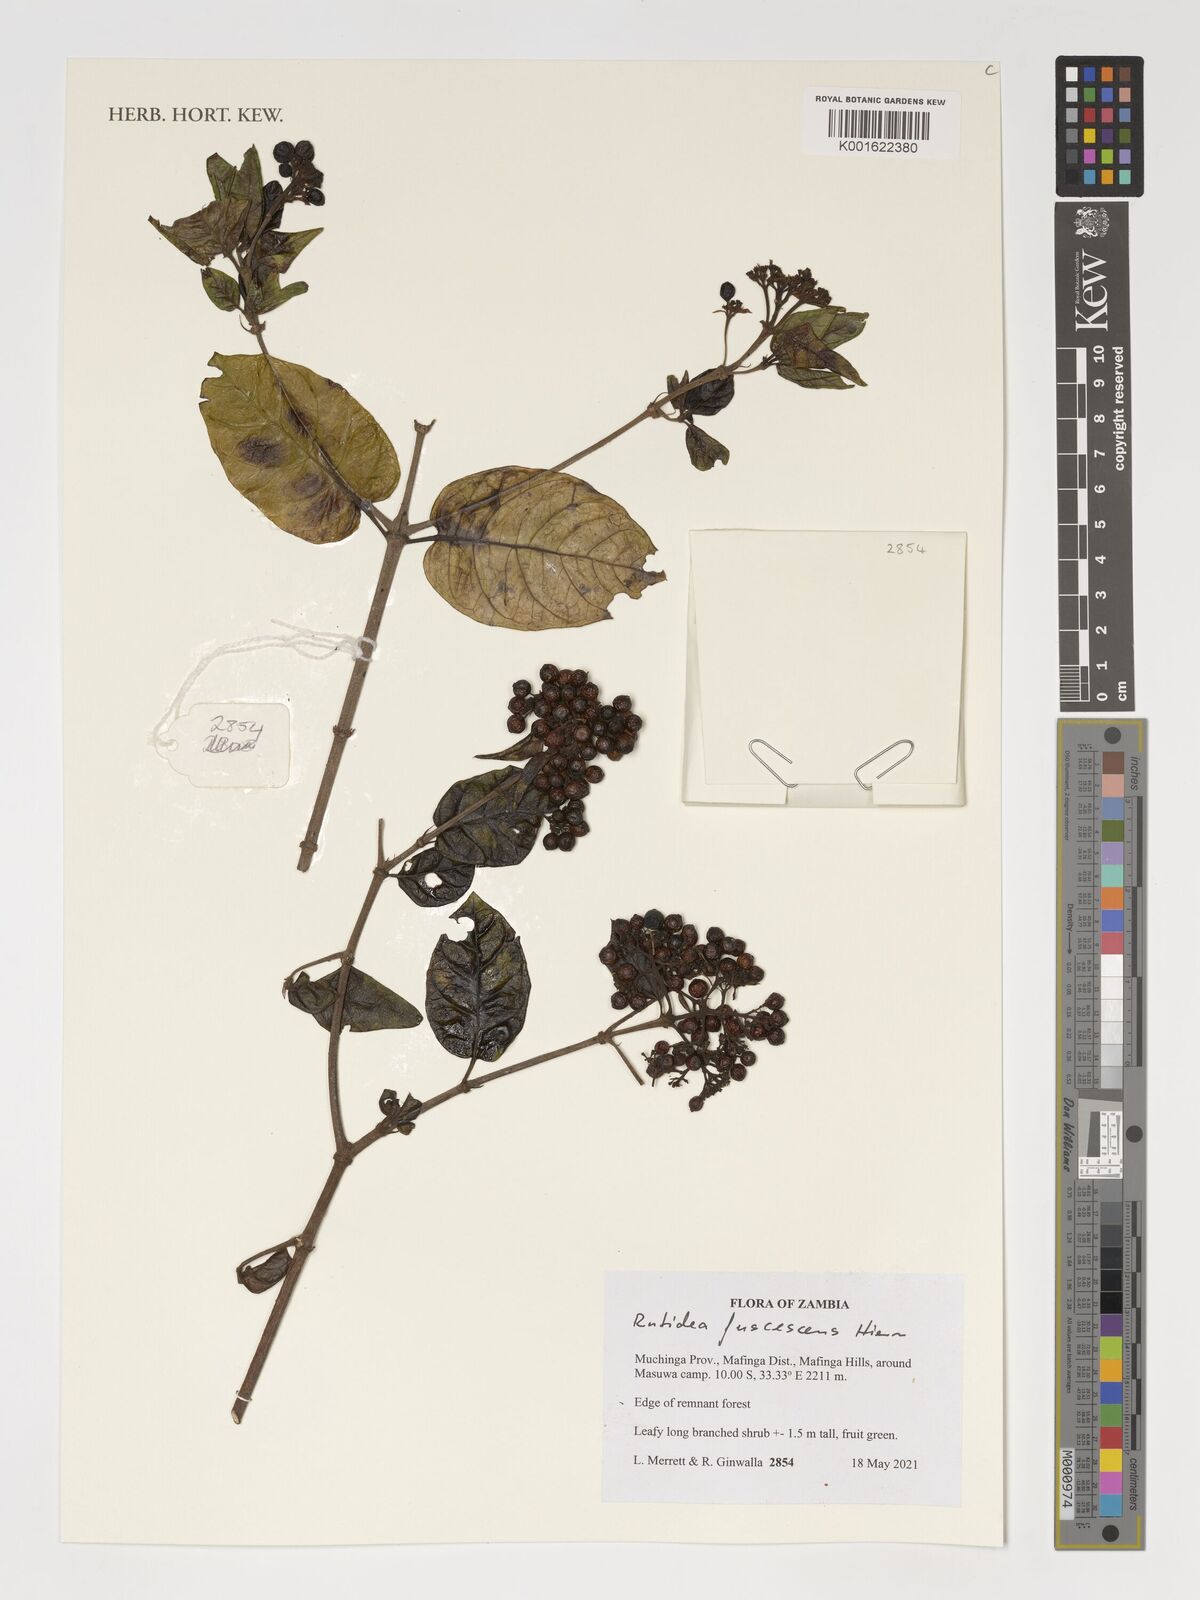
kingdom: Plantae
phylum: Tracheophyta
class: Magnoliopsida
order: Gentianales
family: Rubiaceae
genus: Rutidea
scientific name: Rutidea fuscescens
